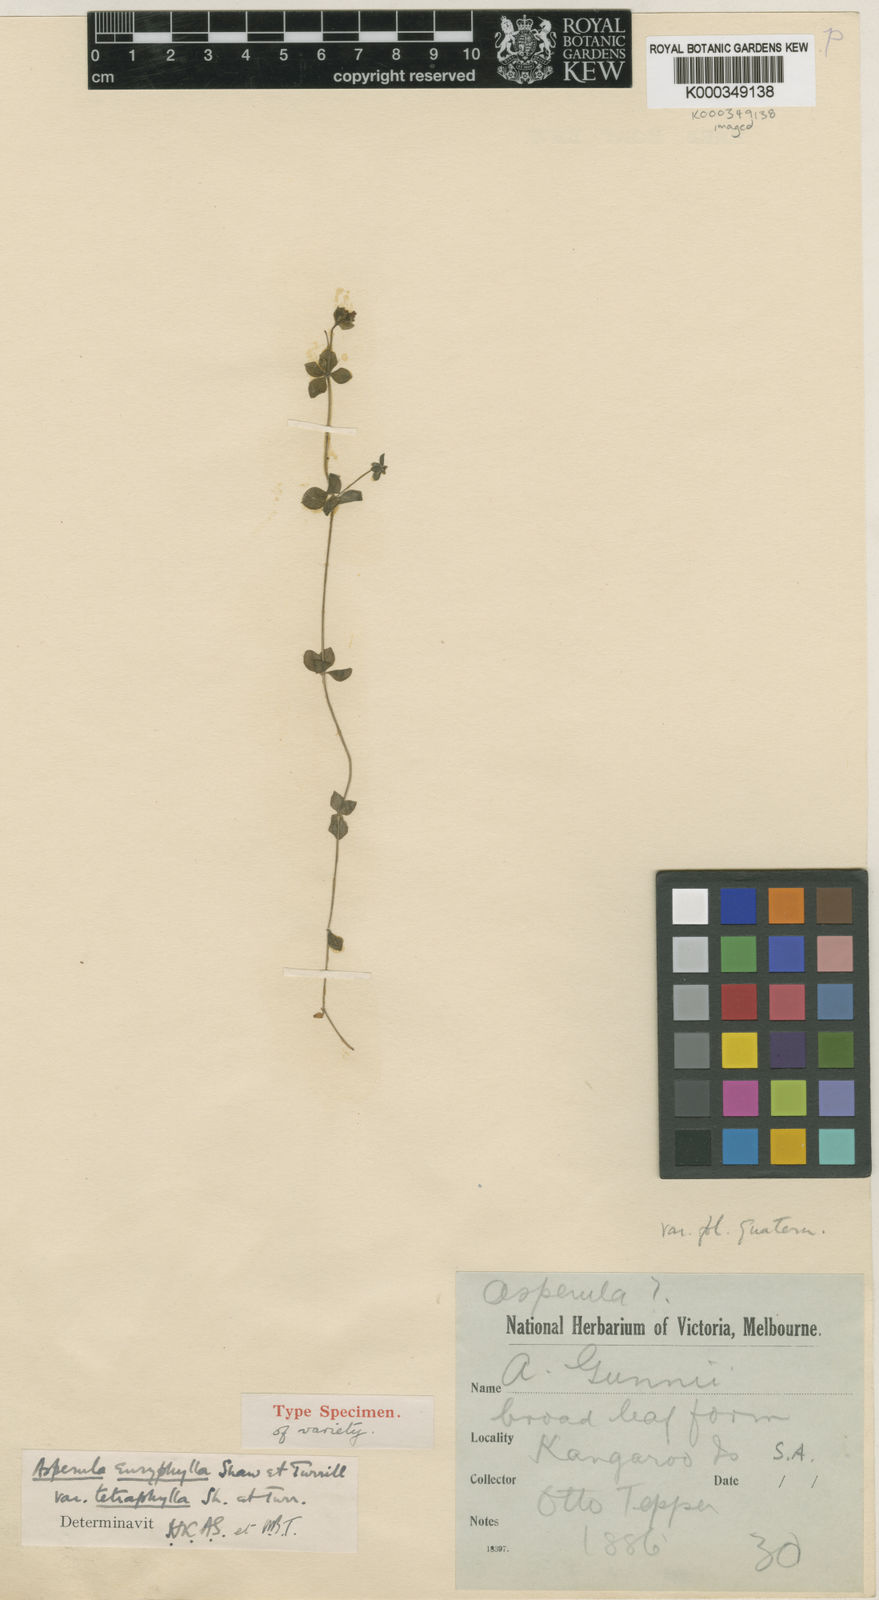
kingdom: Plantae
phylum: Tracheophyta
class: Magnoliopsida
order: Gentianales
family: Rubiaceae
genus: Asperula
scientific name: Asperula tetraphylla
